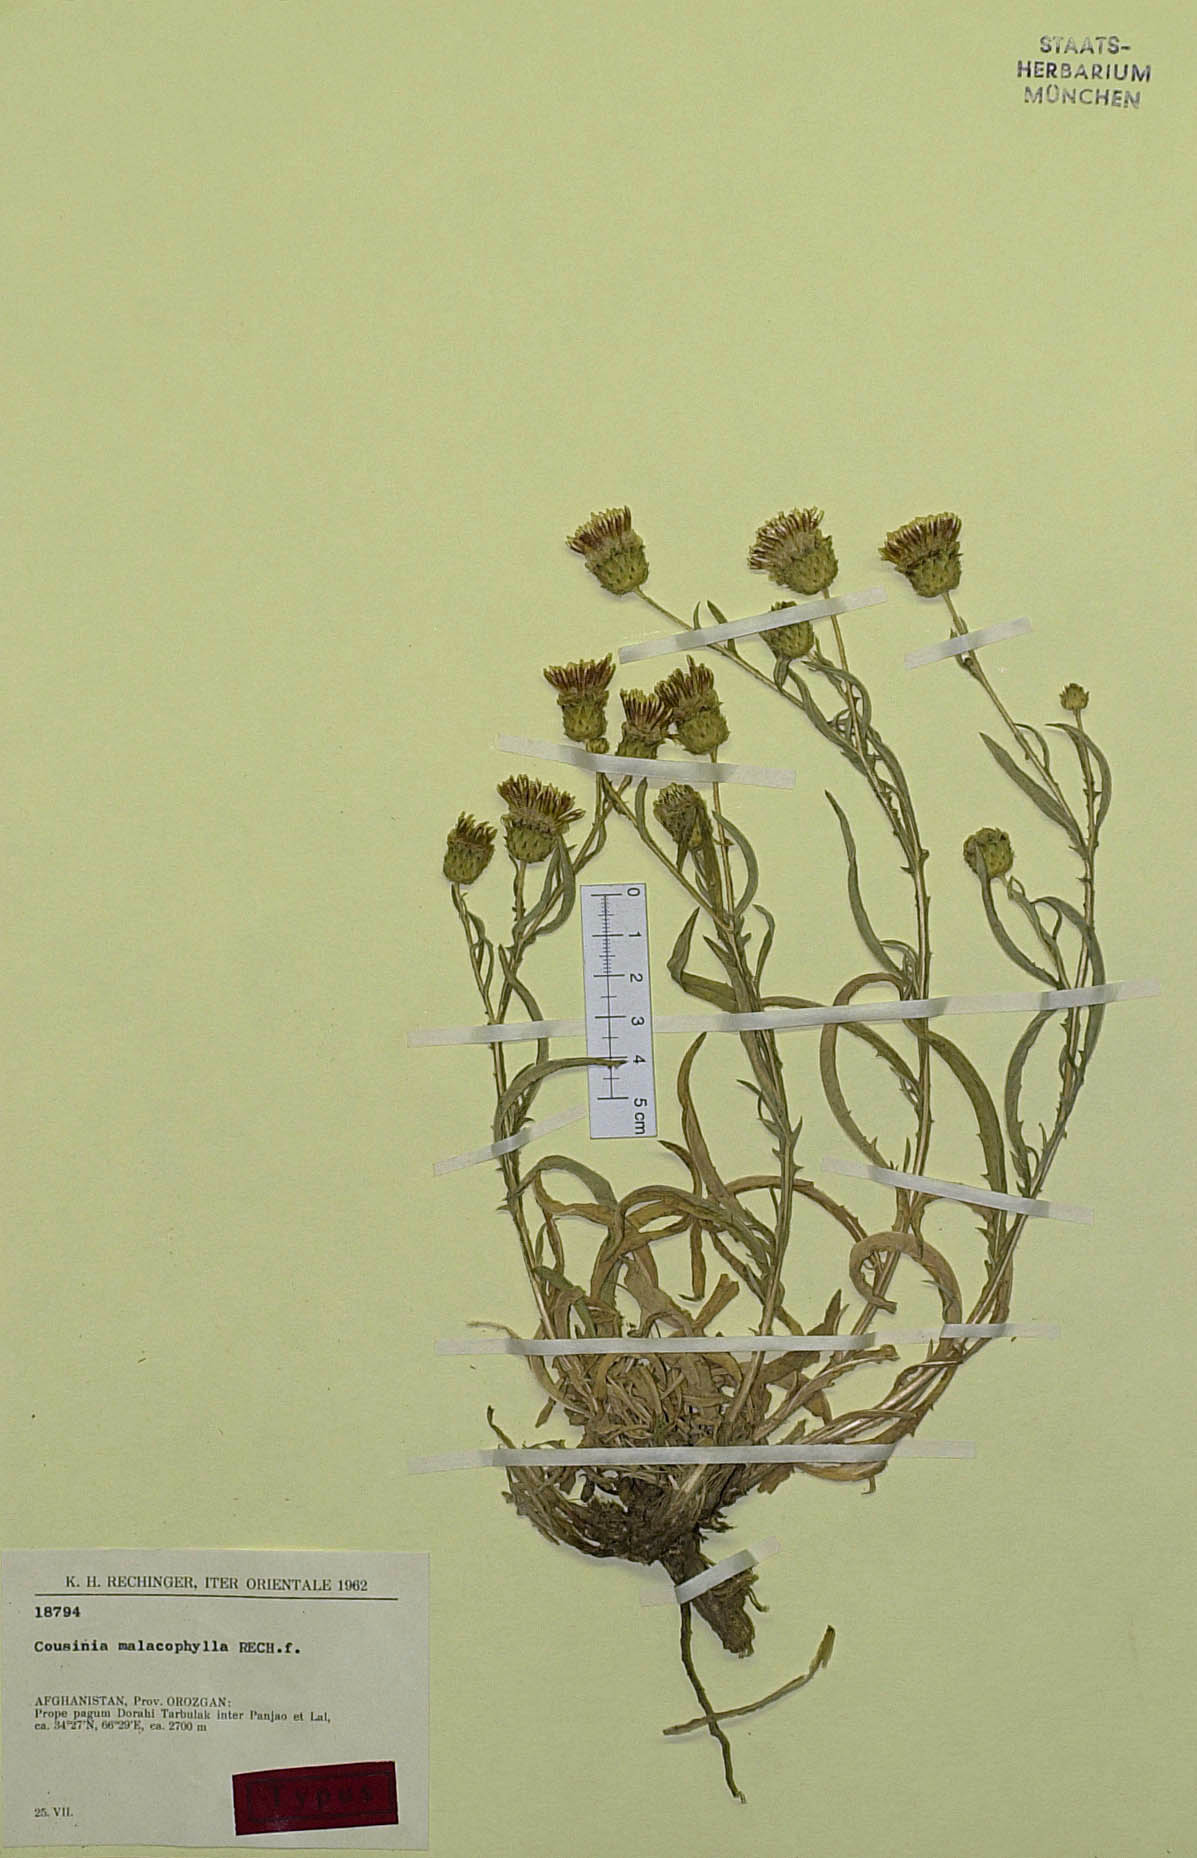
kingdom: Plantae
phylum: Tracheophyta
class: Magnoliopsida
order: Asterales
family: Asteraceae
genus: Cousinia
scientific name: Cousinia malacophylla
